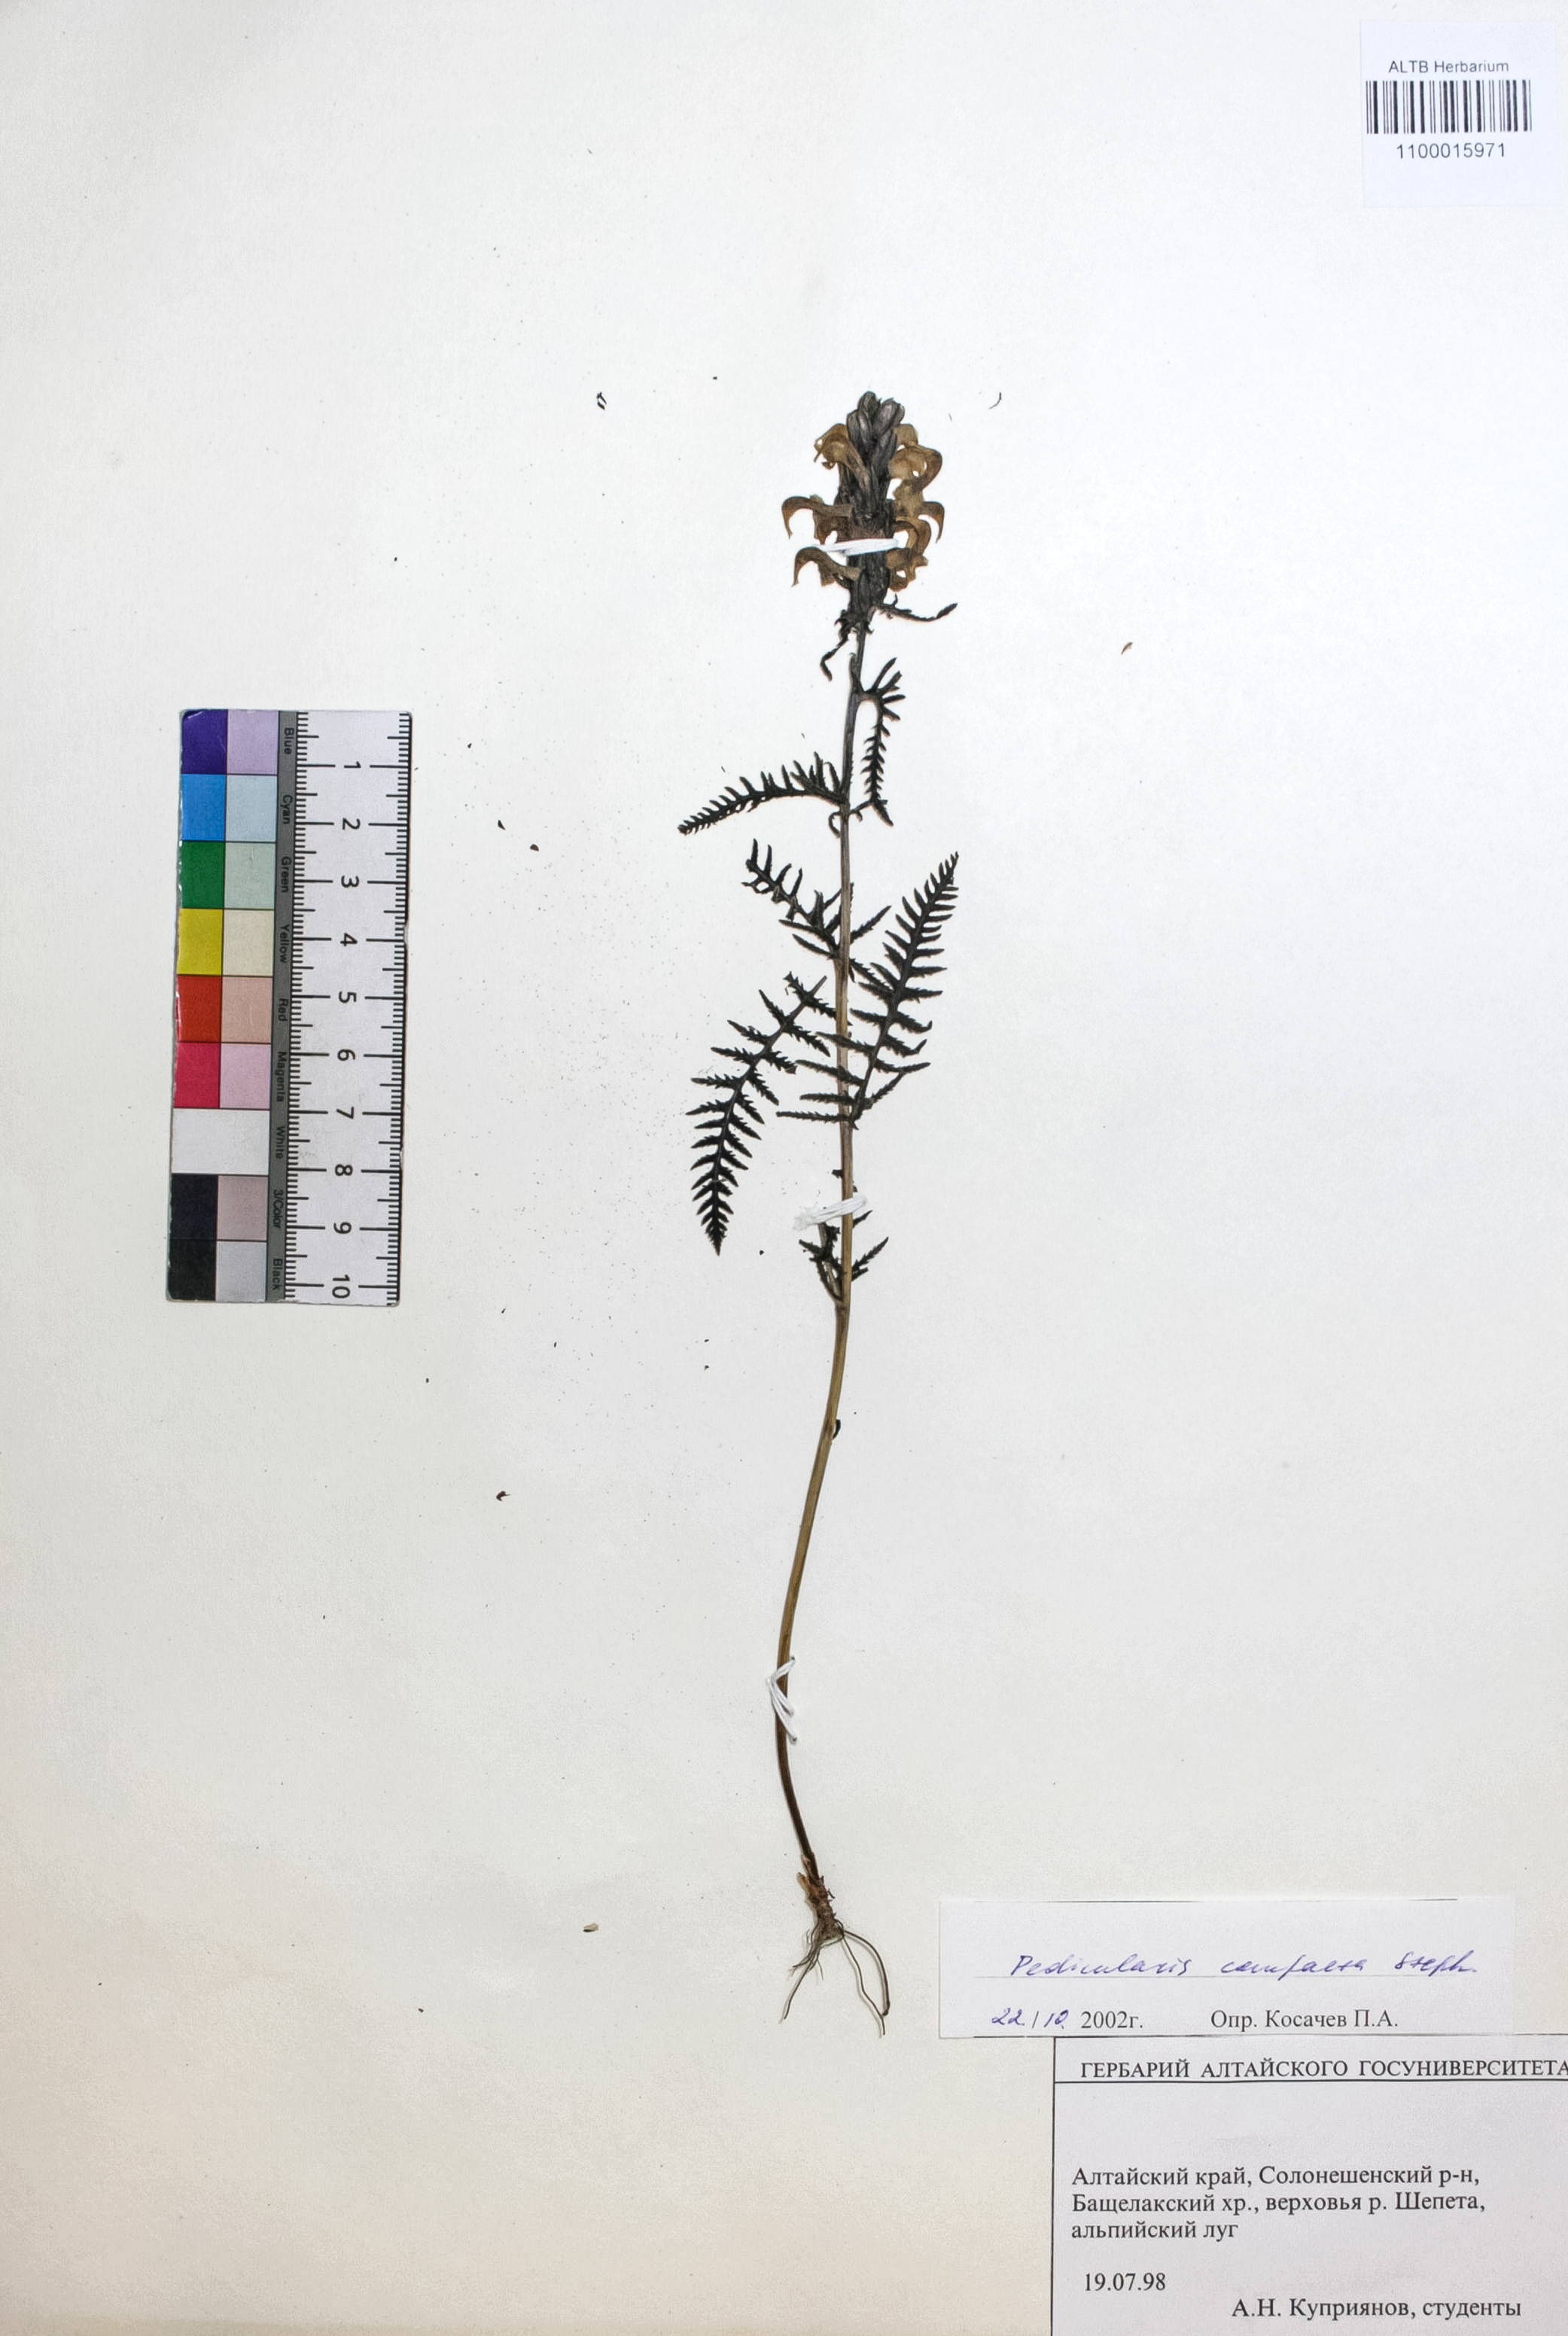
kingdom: Plantae
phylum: Tracheophyta
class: Magnoliopsida
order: Lamiales
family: Orobanchaceae
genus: Pedicularis
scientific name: Pedicularis compacta
